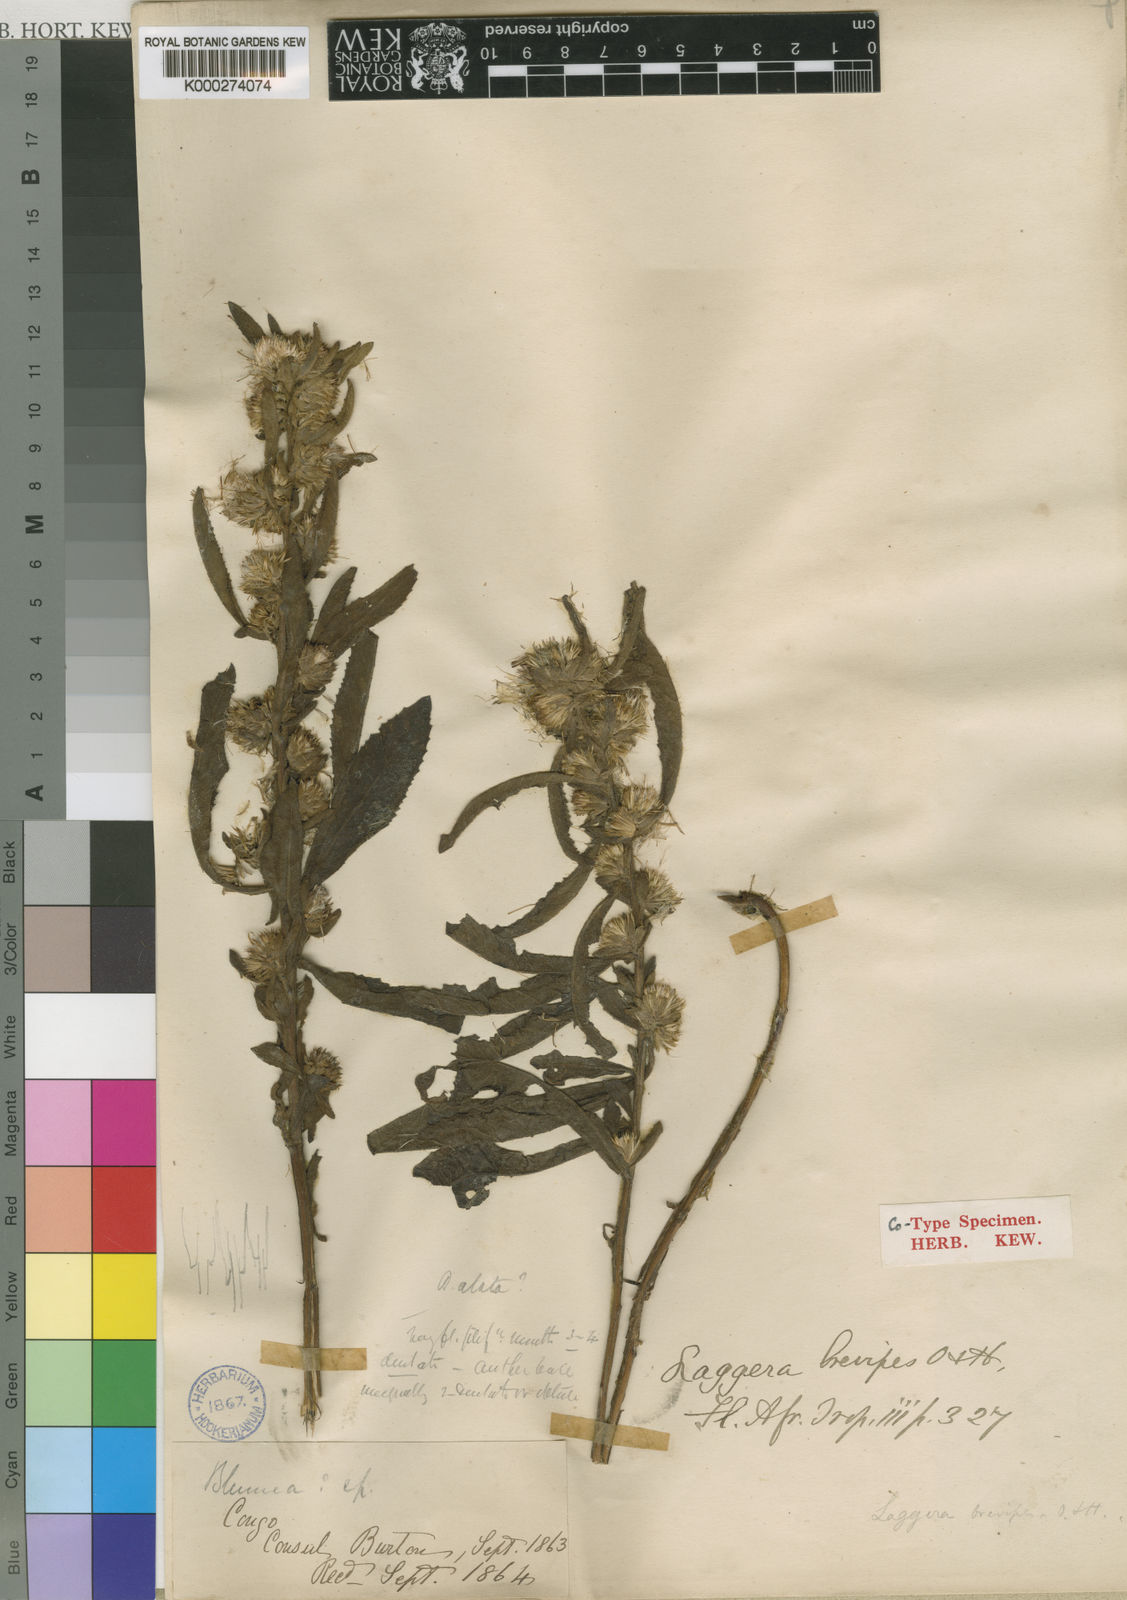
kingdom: Plantae
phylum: Tracheophyta
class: Magnoliopsida
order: Asterales
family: Asteraceae
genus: Laggera
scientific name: Laggera brevipes
